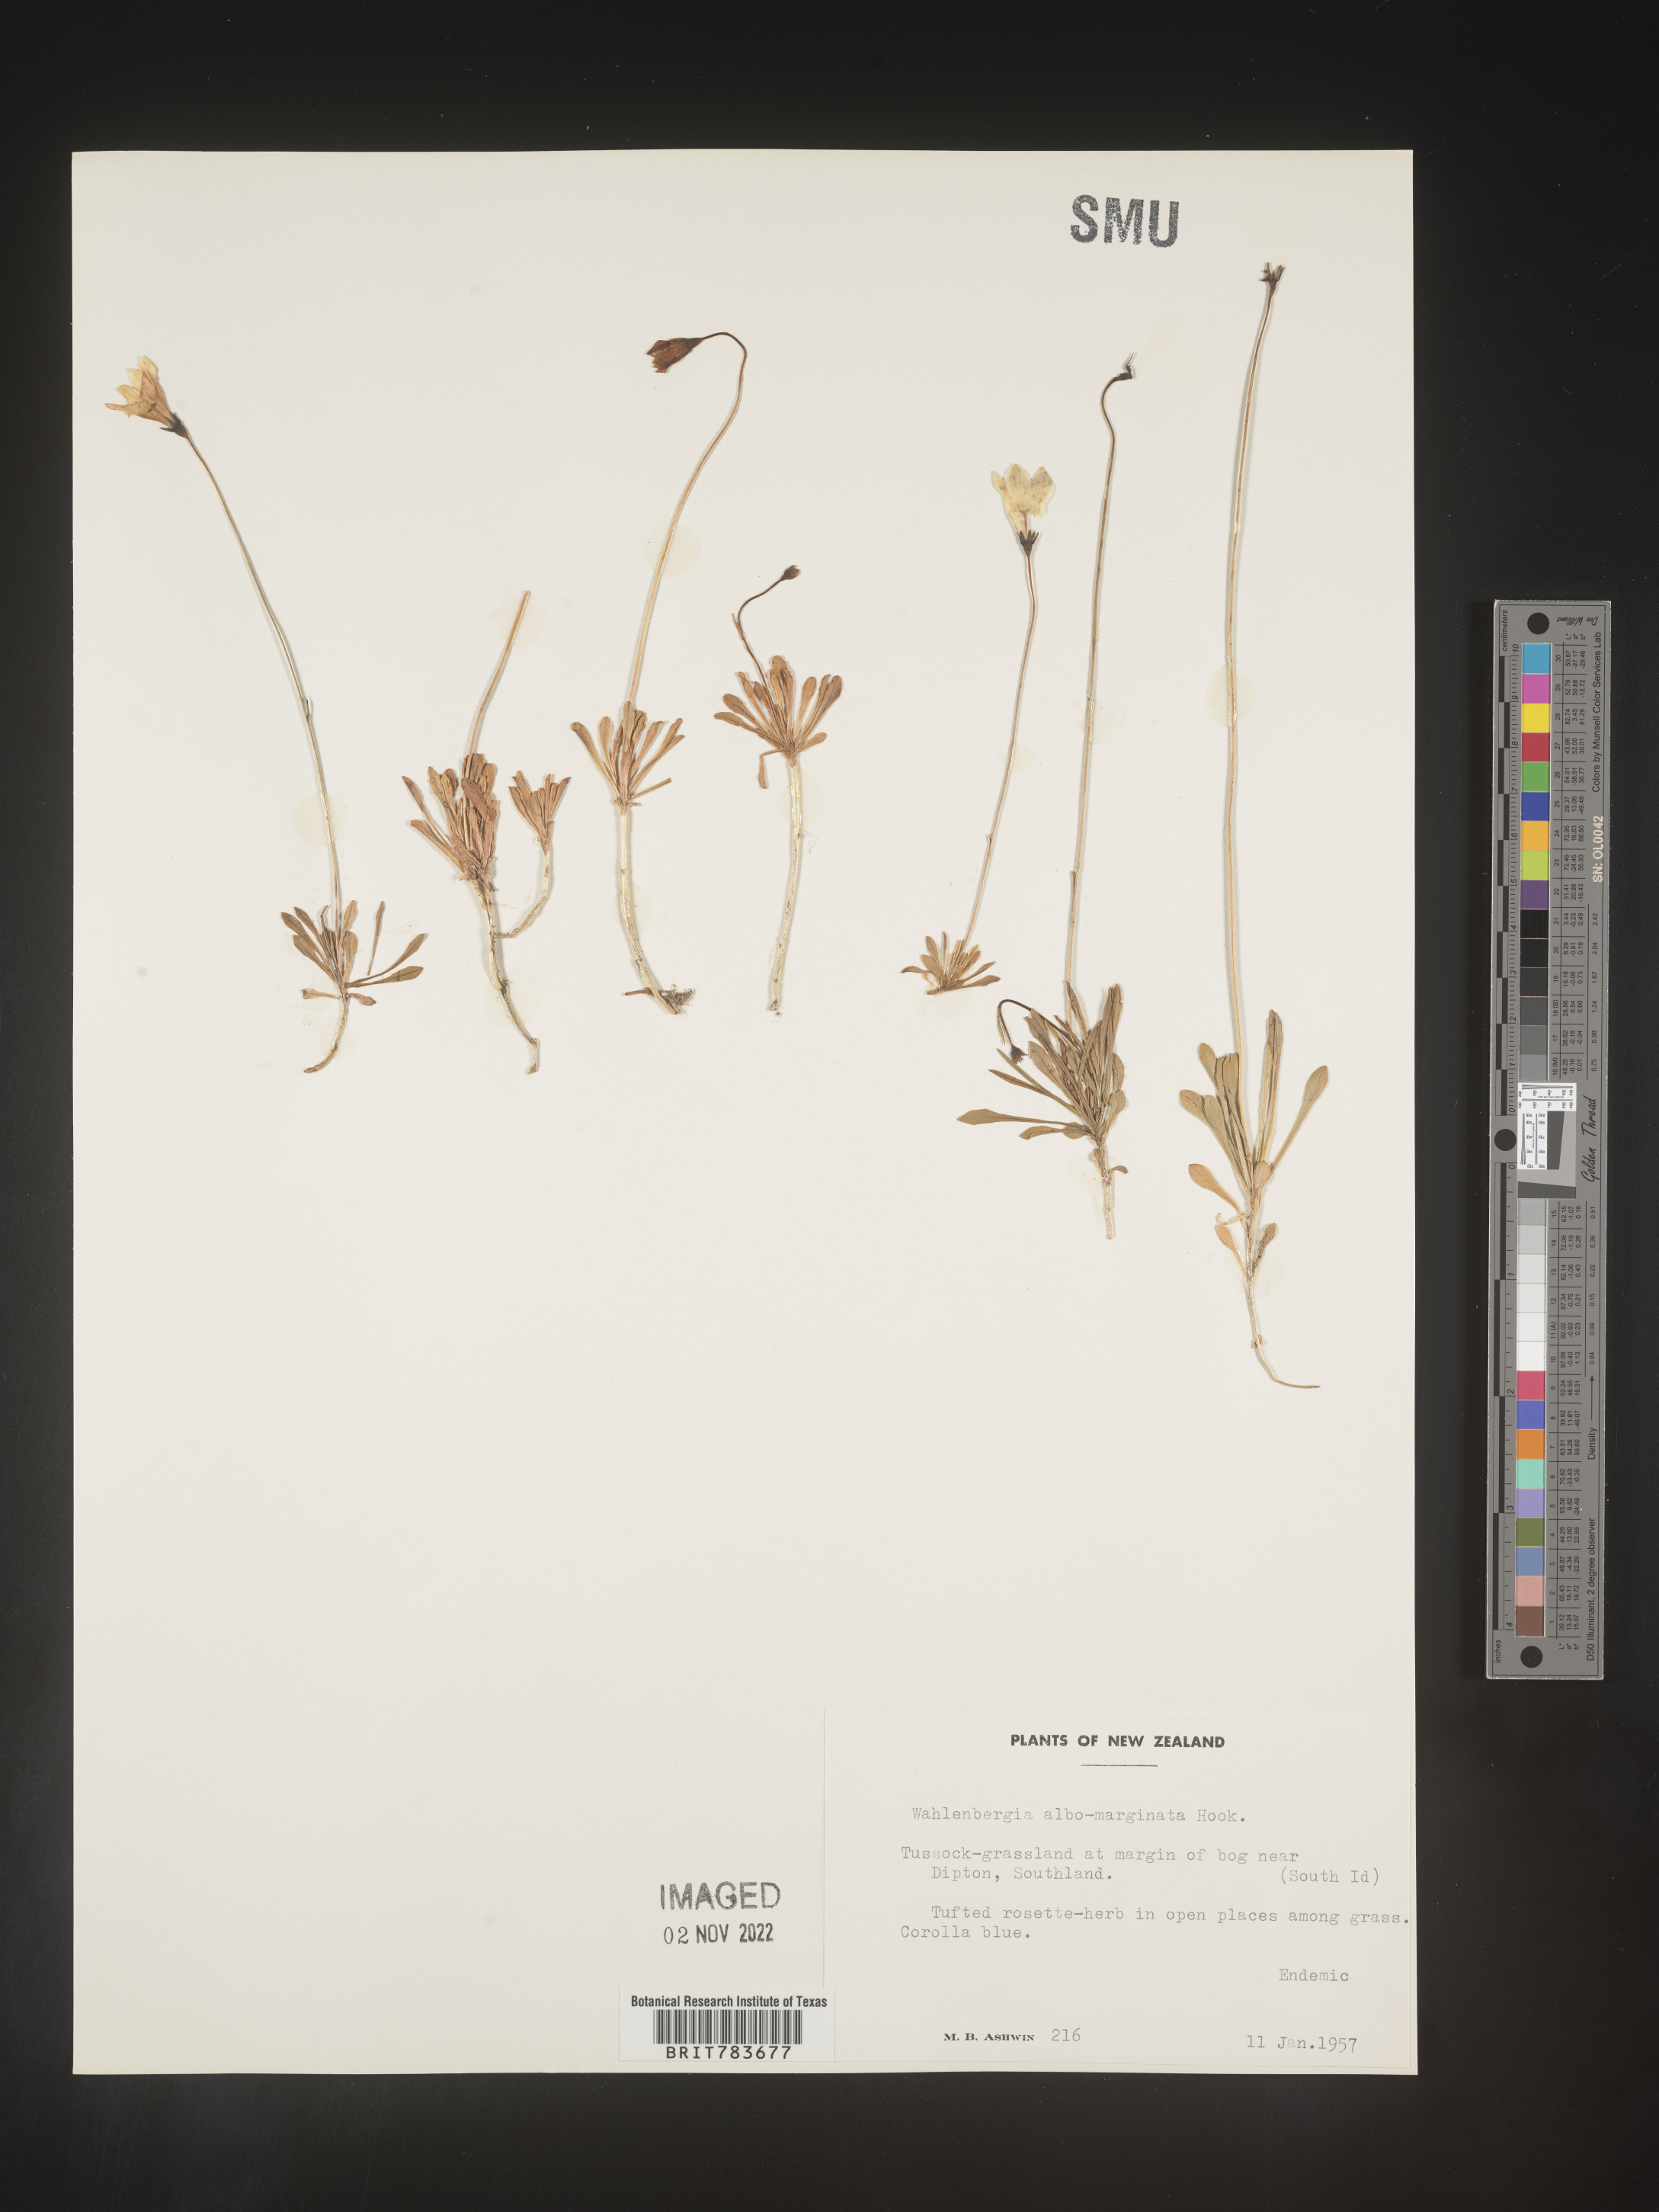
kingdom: Plantae
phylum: Tracheophyta
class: Magnoliopsida
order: Asterales
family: Campanulaceae
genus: Wahlenbergia
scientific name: Wahlenbergia
